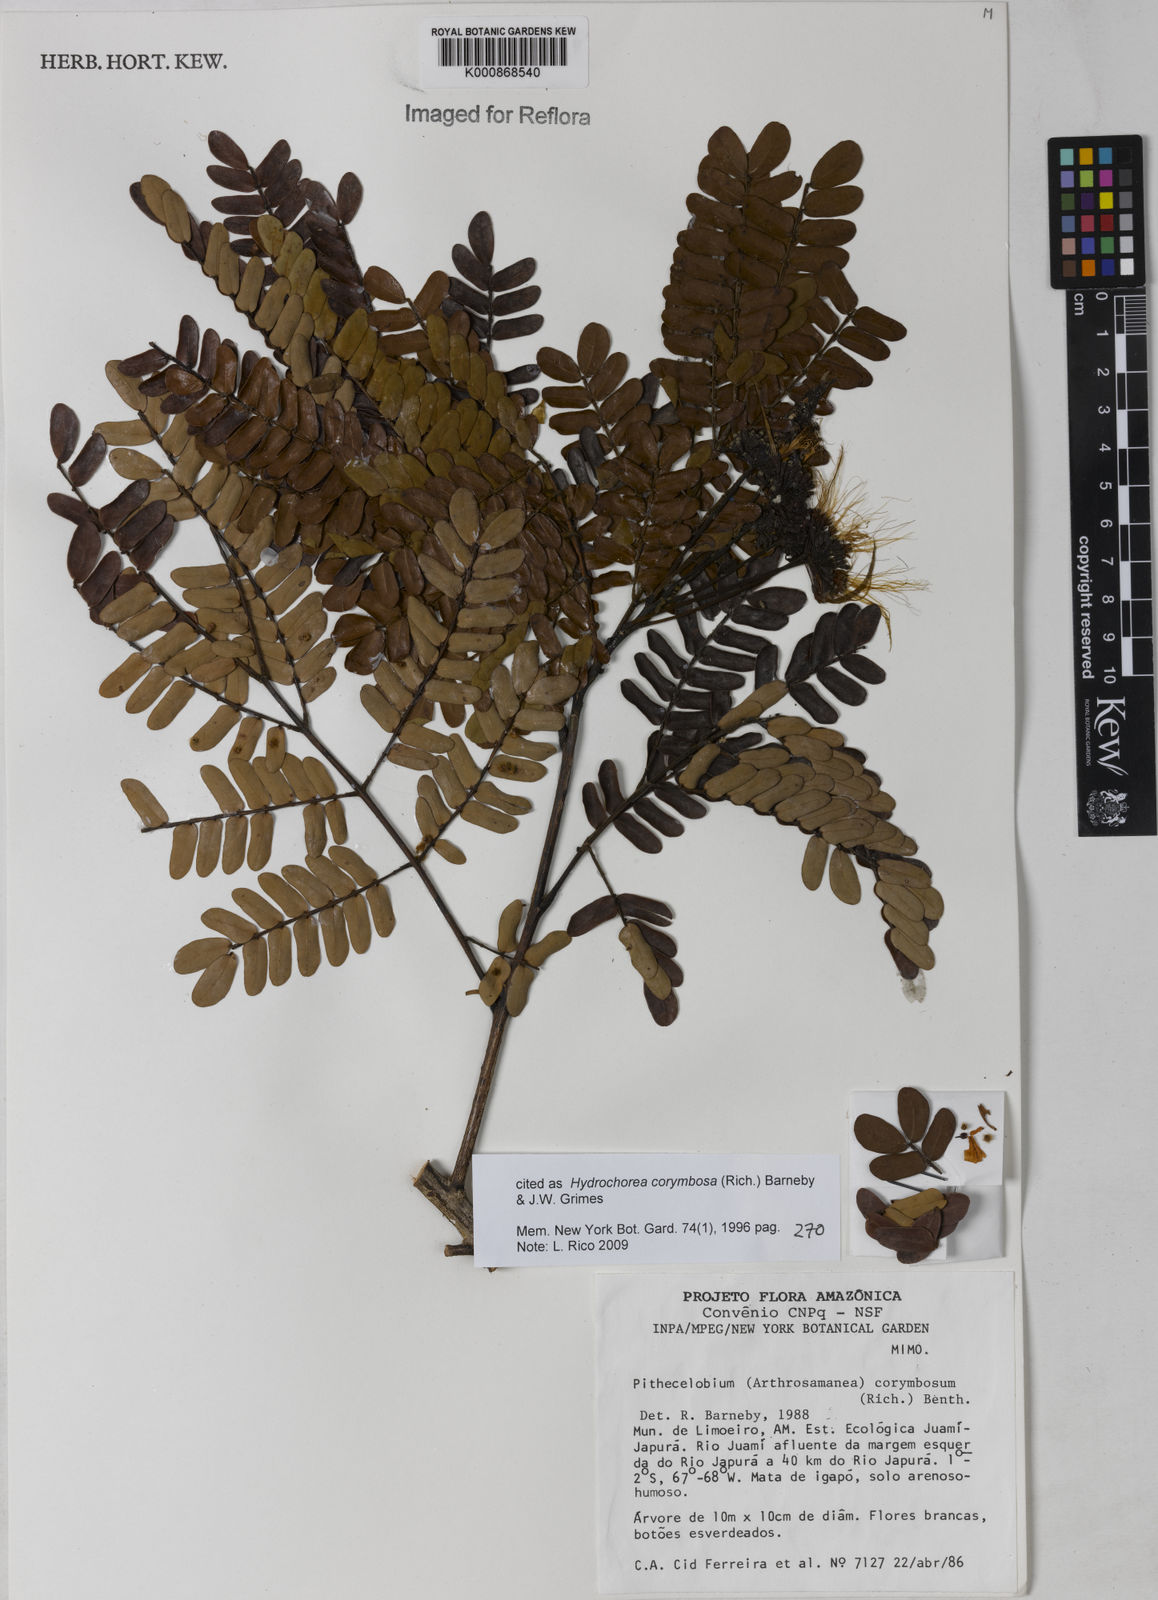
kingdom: Plantae
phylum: Tracheophyta
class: Magnoliopsida
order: Fabales
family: Fabaceae
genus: Hydrochorea
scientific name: Hydrochorea corymbosa
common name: Swamp manariballi
